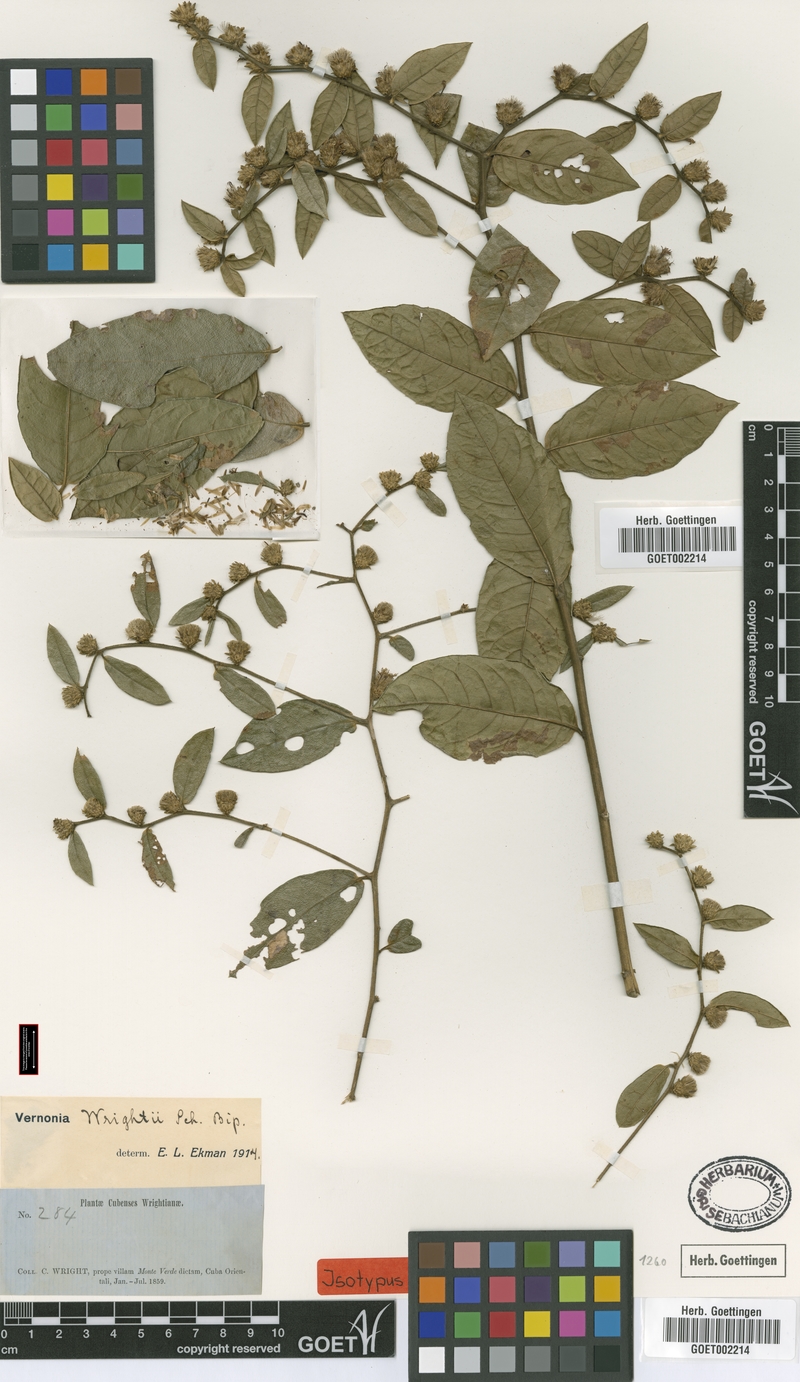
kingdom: Plantae
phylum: Tracheophyta
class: Magnoliopsida
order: Asterales
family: Asteraceae
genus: Lepidaploa
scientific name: Lepidaploa wrightii
